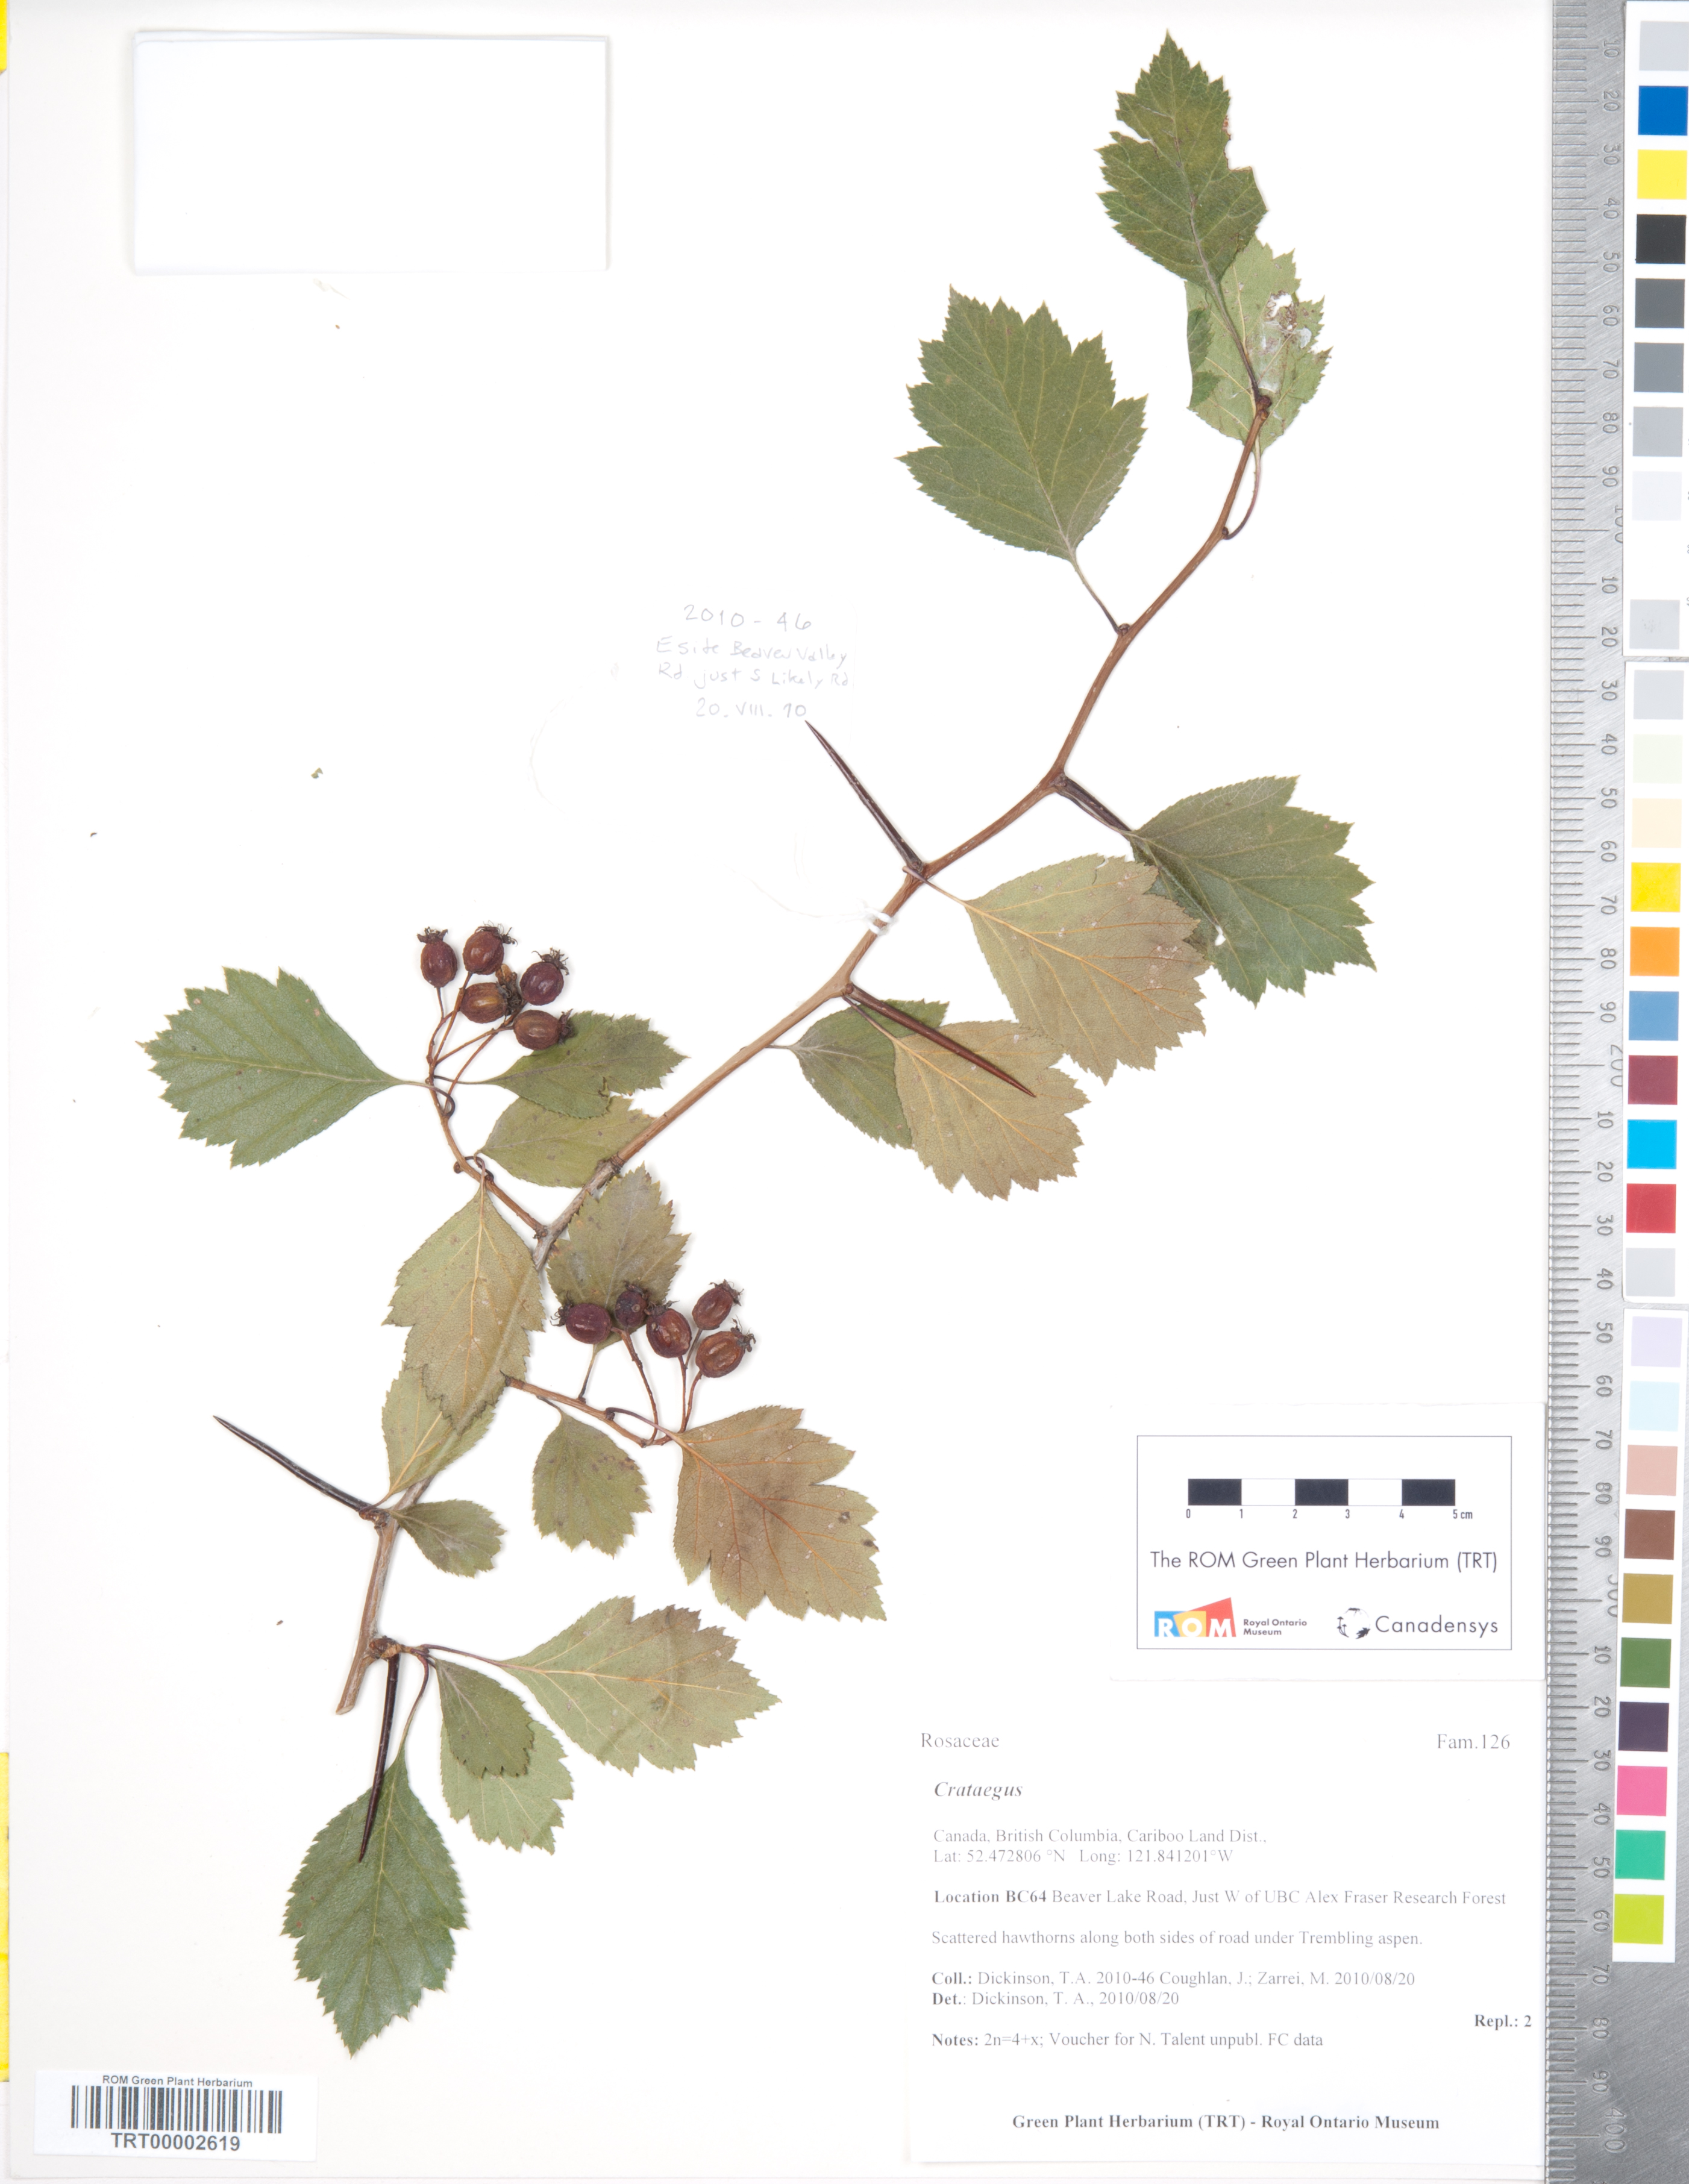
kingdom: Plantae
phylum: Tracheophyta
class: Magnoliopsida
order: Rosales
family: Rosaceae
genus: Crataegus
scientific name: Crataegus shuswapensis
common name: Shuswap hawthorn
